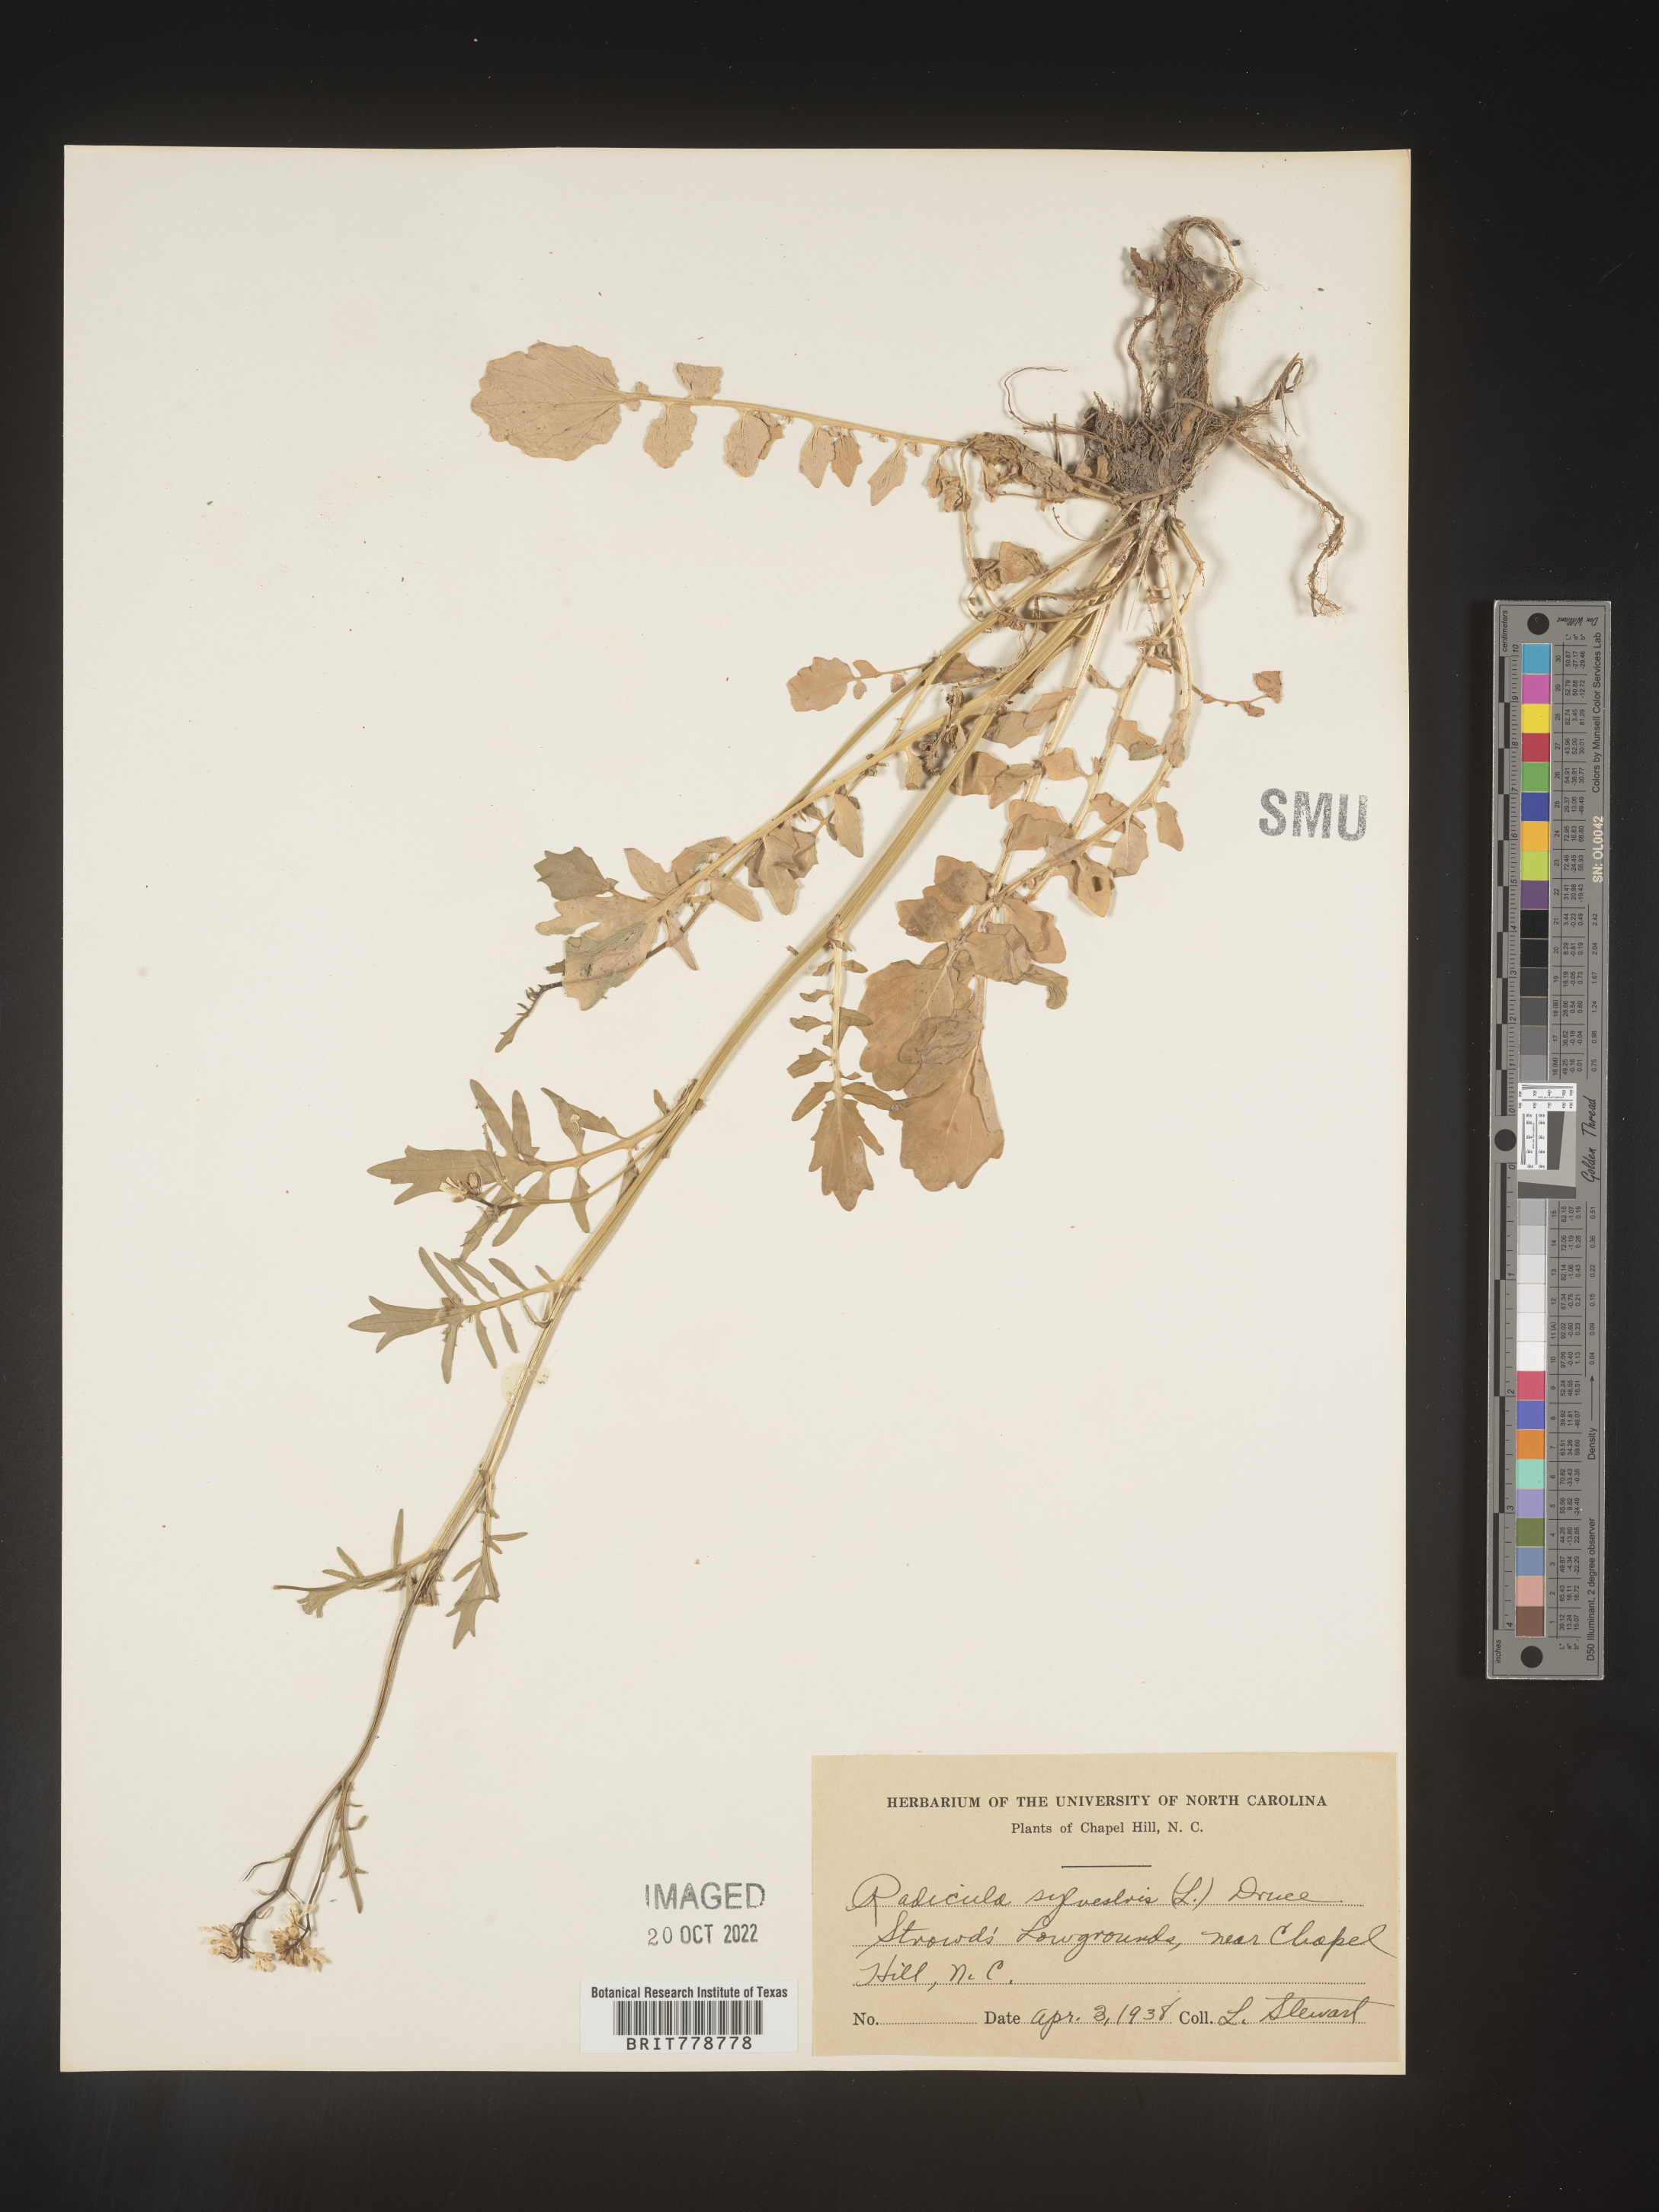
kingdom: Plantae
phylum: Tracheophyta
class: Magnoliopsida
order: Brassicales
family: Brassicaceae
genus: Rorippa
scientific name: Rorippa sylvestris
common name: Creeping yellowcress
